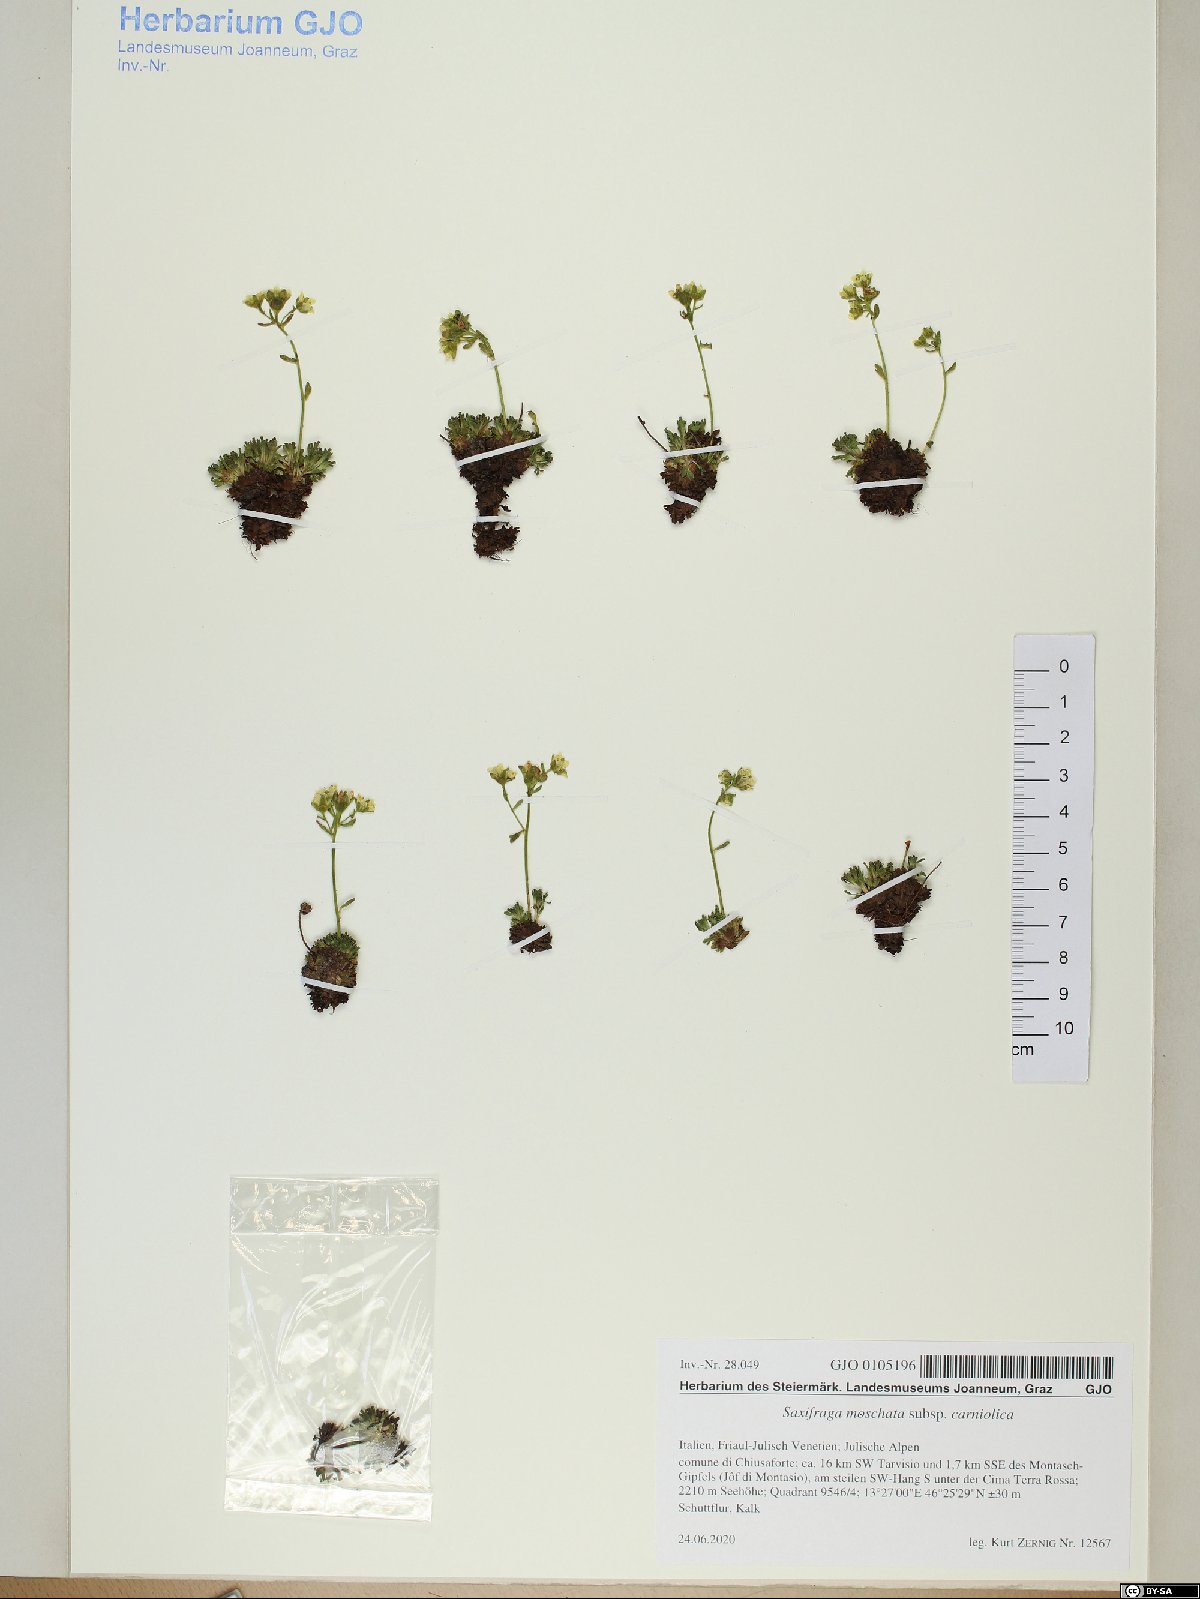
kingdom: Plantae
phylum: Tracheophyta
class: Magnoliopsida
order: Saxifragales
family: Saxifragaceae
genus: Saxifraga
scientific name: Saxifraga exarata
